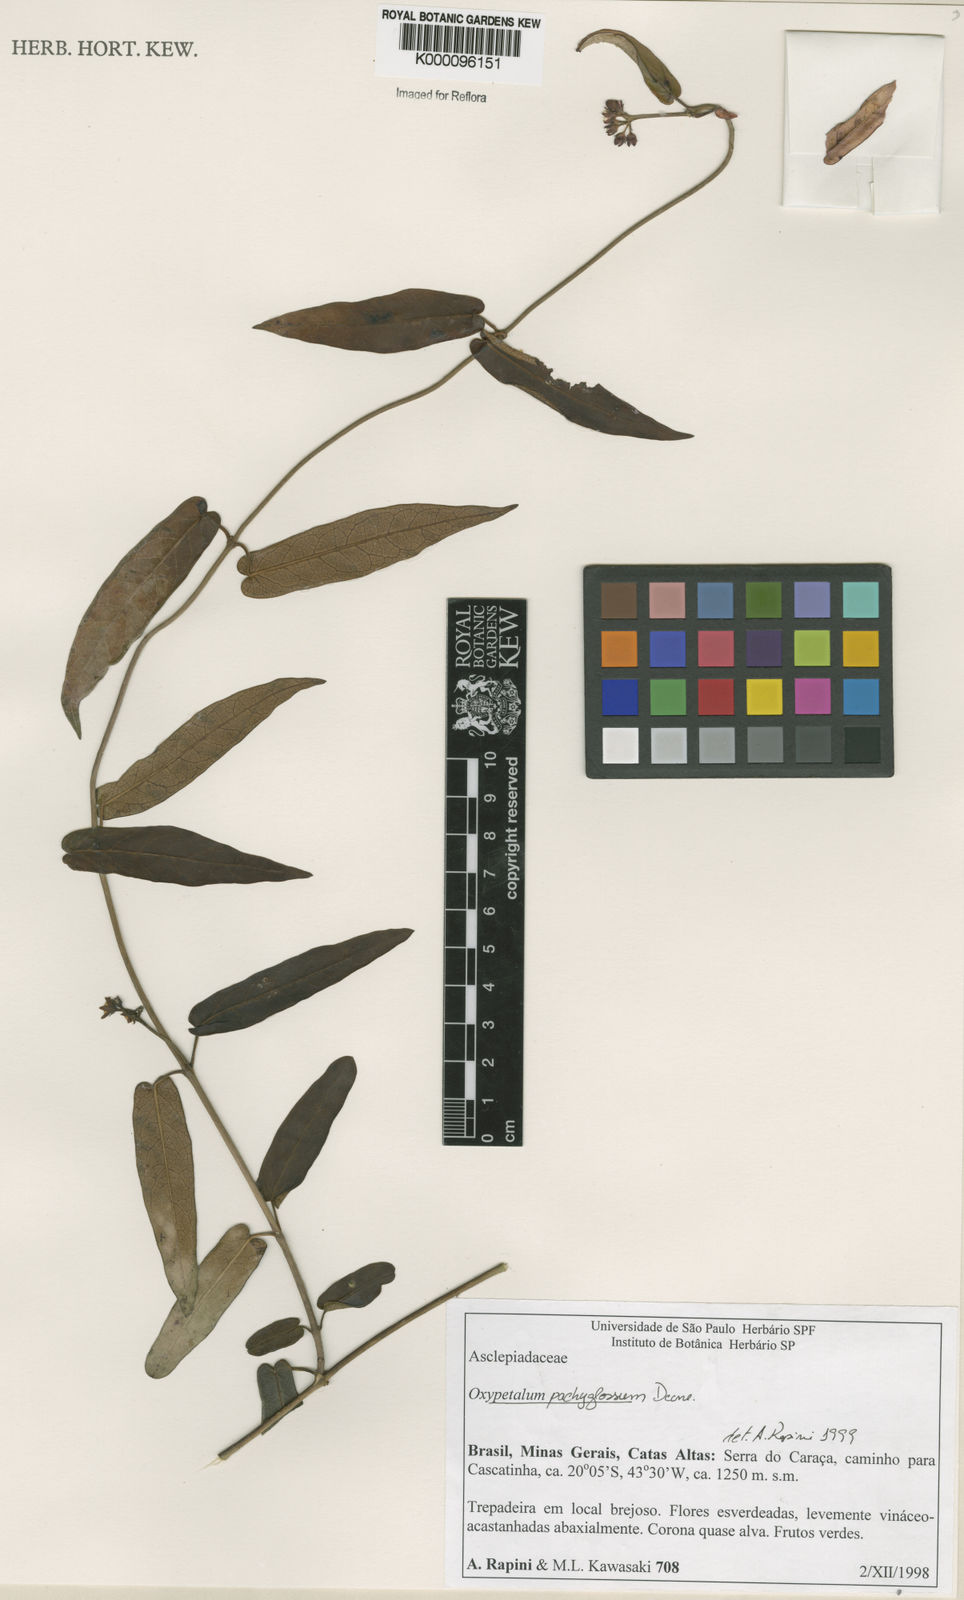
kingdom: Plantae
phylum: Tracheophyta
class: Magnoliopsida
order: Gentianales
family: Apocynaceae
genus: Oxypetalum
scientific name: Oxypetalum pachyglossum
